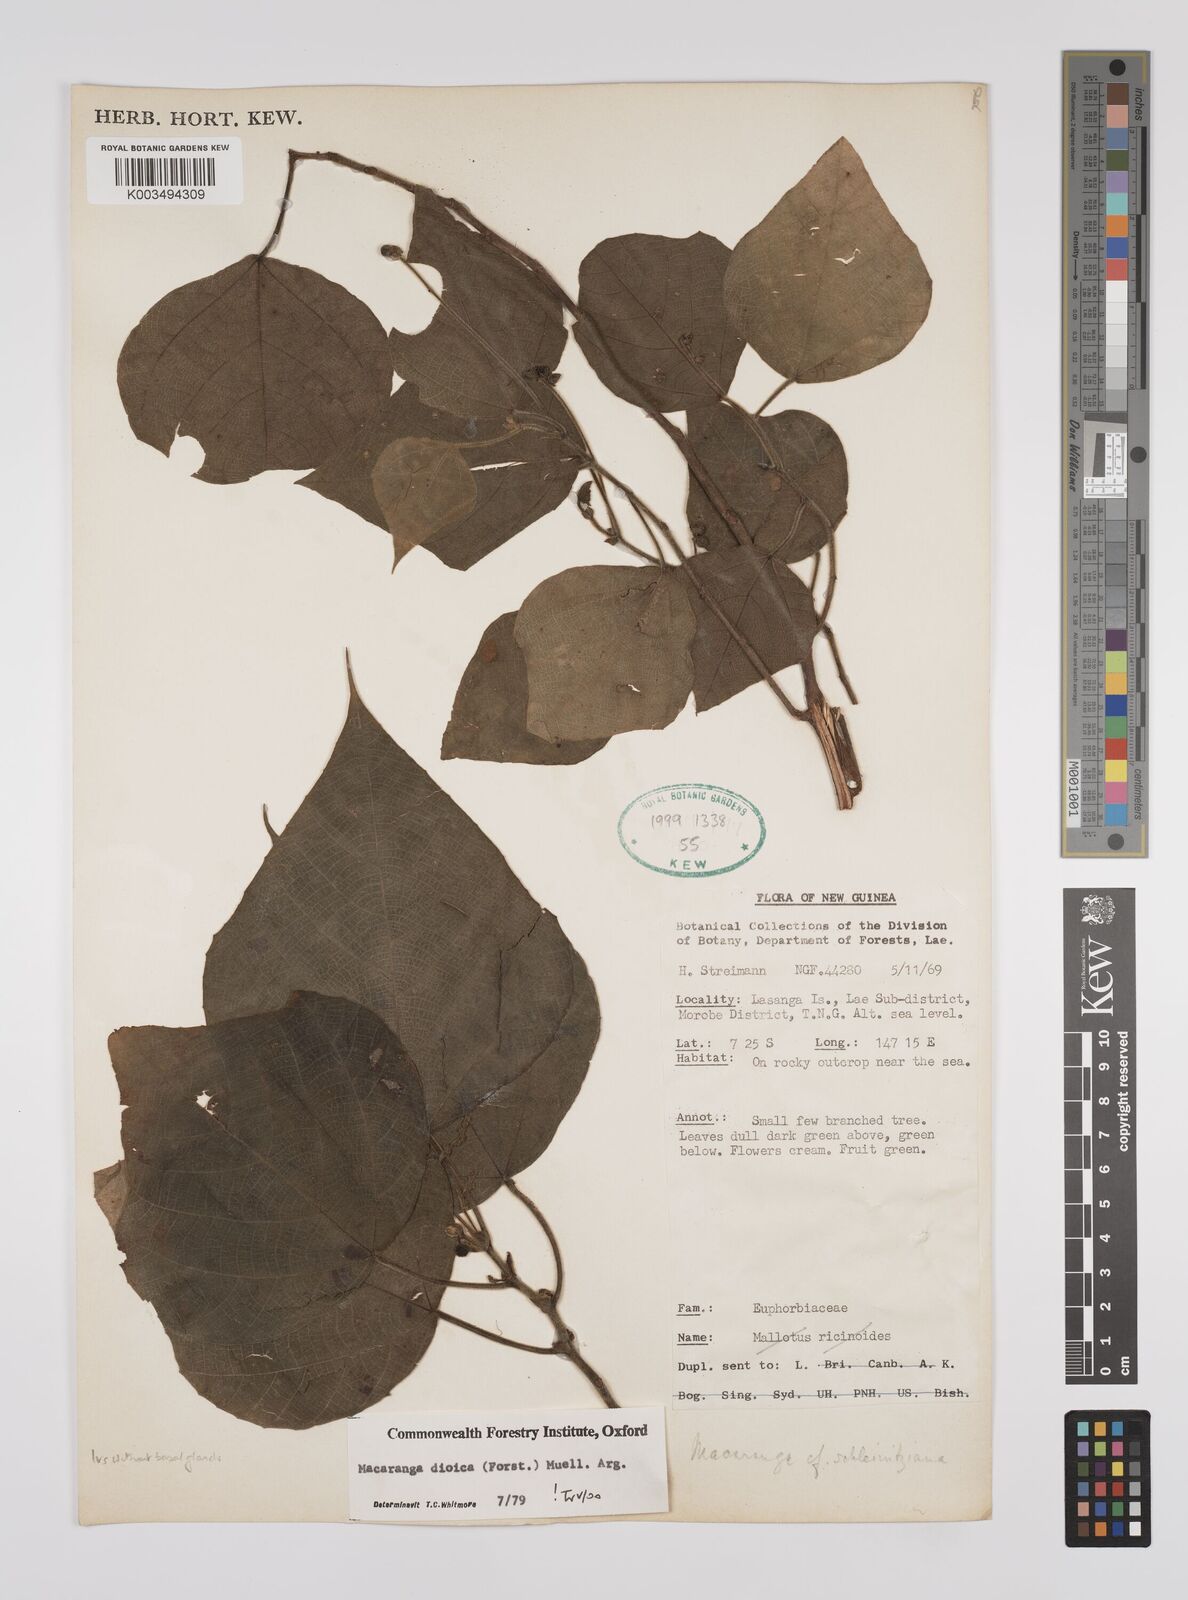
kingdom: Plantae
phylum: Tracheophyta
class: Magnoliopsida
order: Malpighiales
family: Euphorbiaceae
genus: Macaranga
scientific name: Macaranga dioica
